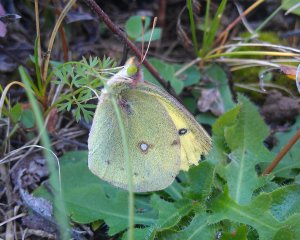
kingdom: Animalia
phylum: Arthropoda
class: Insecta
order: Lepidoptera
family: Pieridae
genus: Colias
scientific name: Colias philodice
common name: Clouded Sulphur
